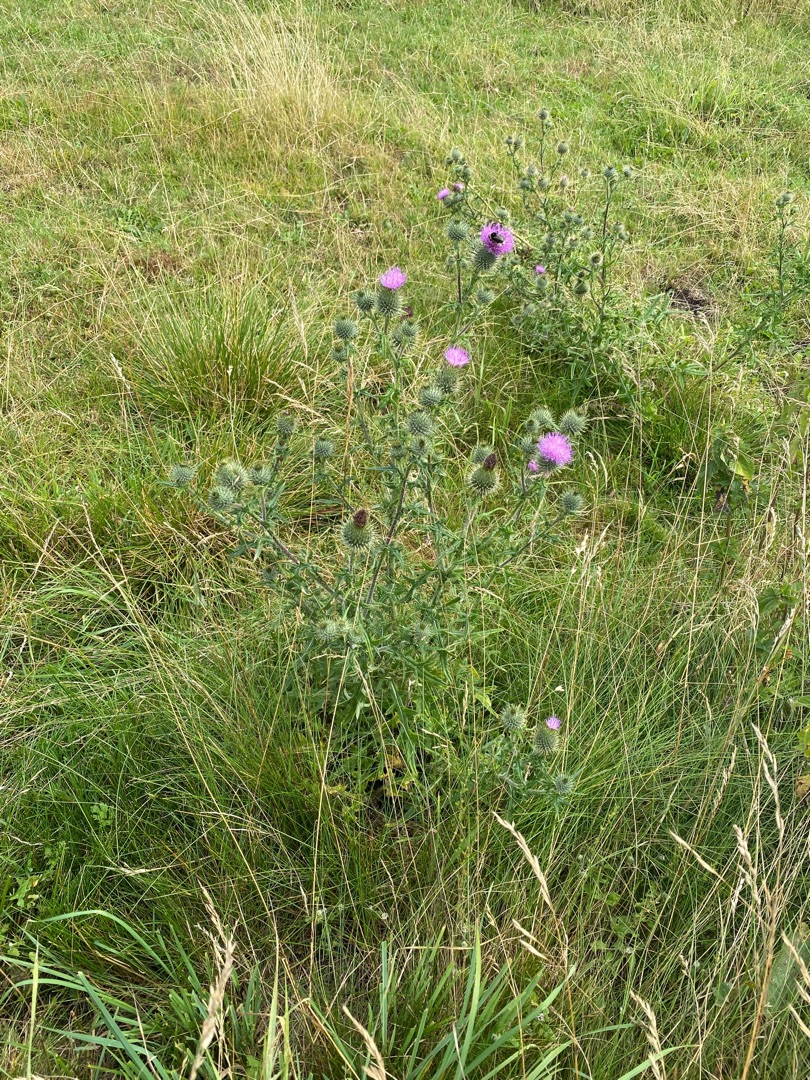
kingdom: Plantae
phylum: Tracheophyta
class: Magnoliopsida
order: Asterales
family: Asteraceae
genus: Cirsium
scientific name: Cirsium vulgare
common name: Horse-tidsel
